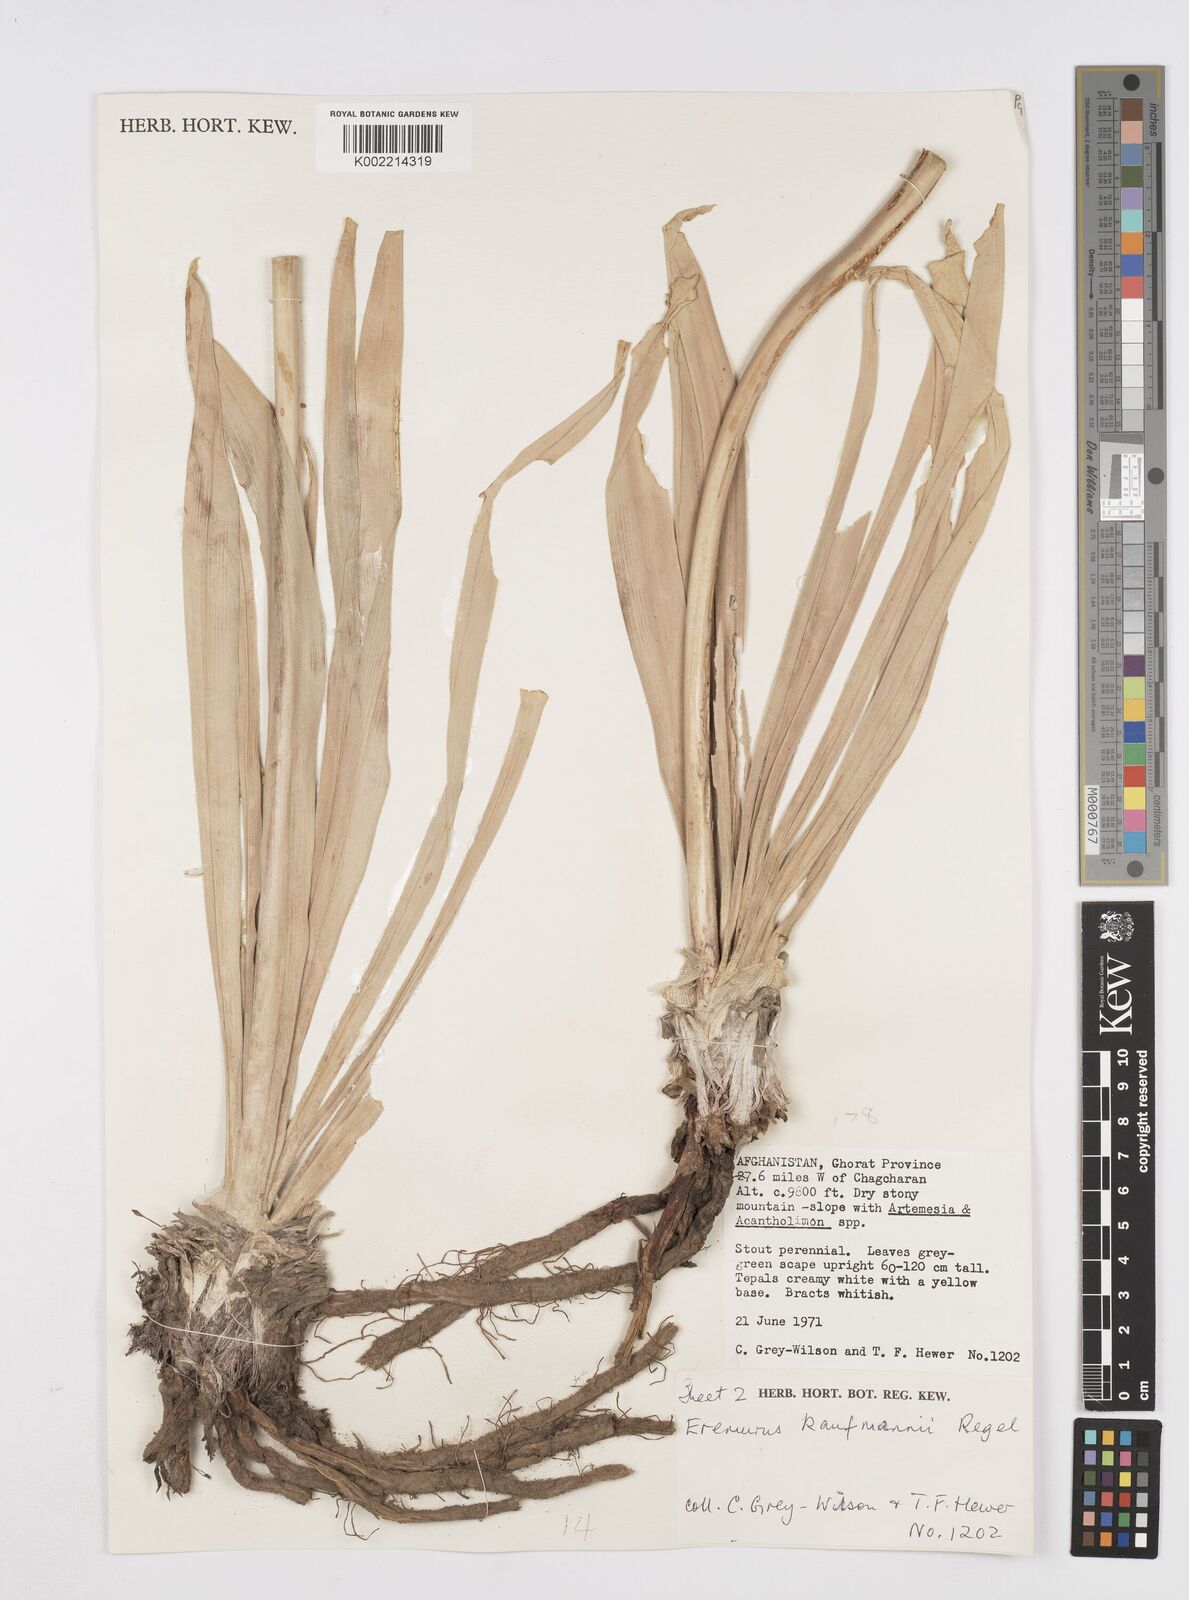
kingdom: Plantae
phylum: Tracheophyta
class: Liliopsida
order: Asparagales
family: Asphodelaceae
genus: Eremurus
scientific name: Eremurus kaufmannii
